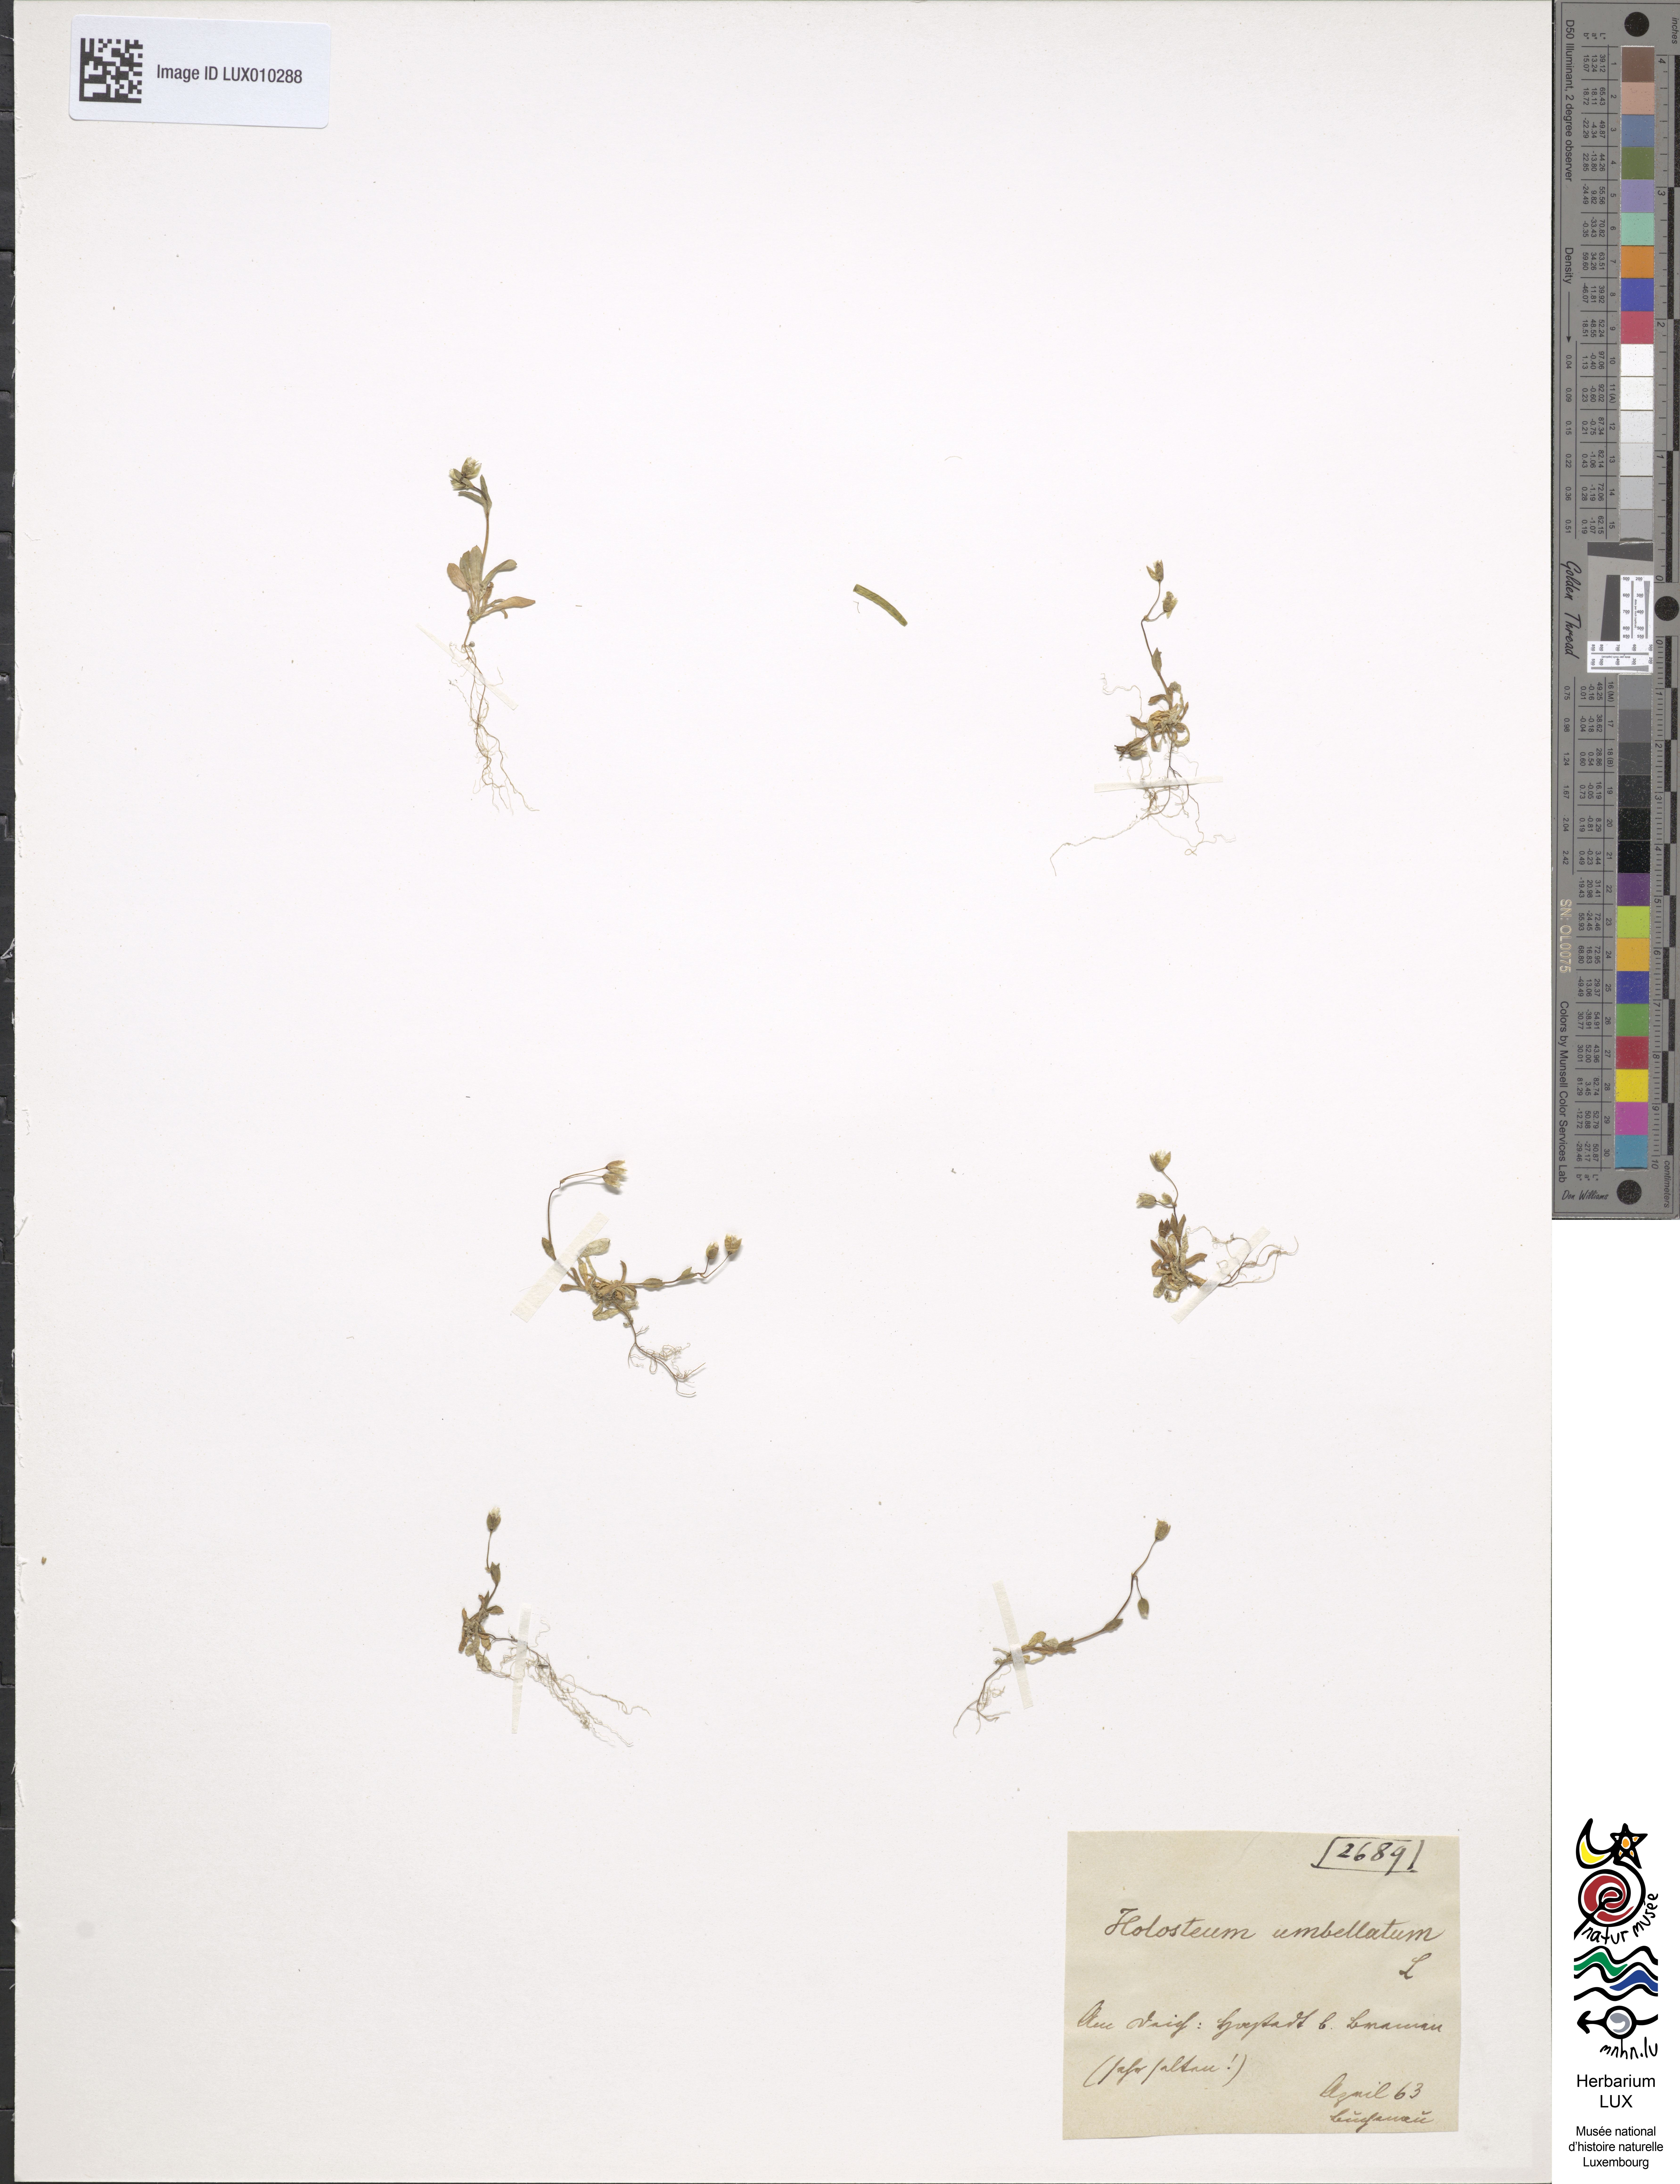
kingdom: Plantae
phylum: Tracheophyta
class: Magnoliopsida
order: Caryophyllales
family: Caryophyllaceae
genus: Holosteum
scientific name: Holosteum umbellatum
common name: Jagged chickweed
